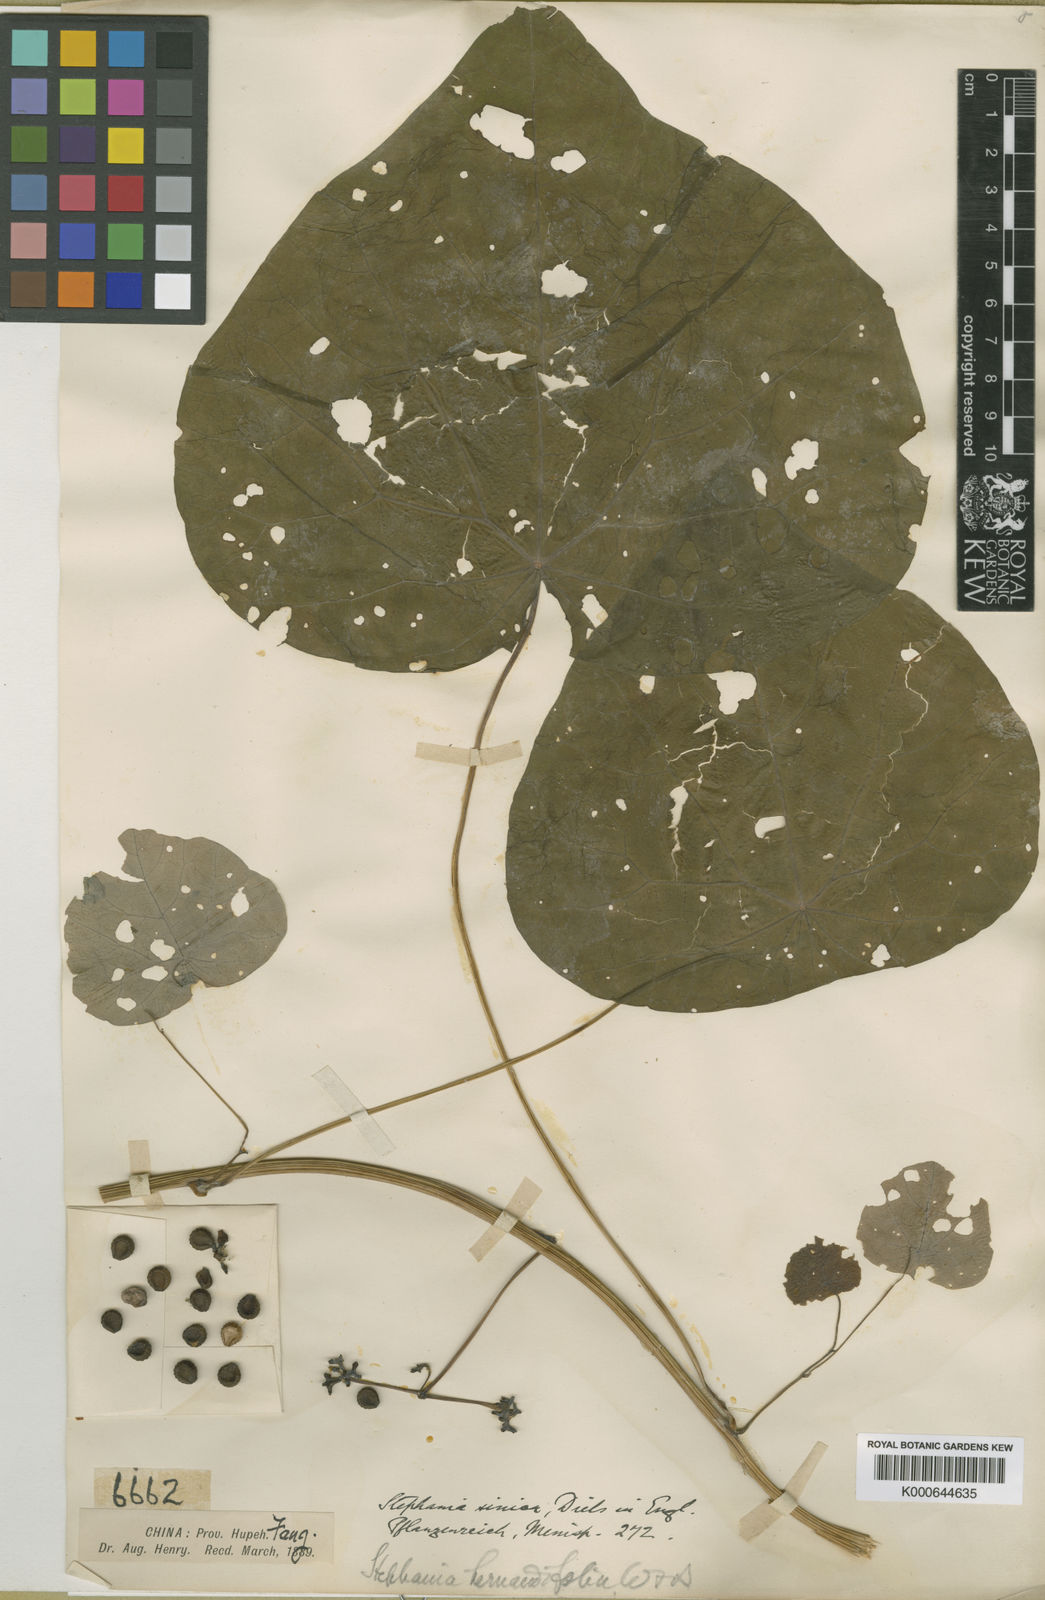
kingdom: Plantae
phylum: Tracheophyta
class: Magnoliopsida
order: Ranunculales
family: Menispermaceae
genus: Stephania
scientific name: Stephania sinica
